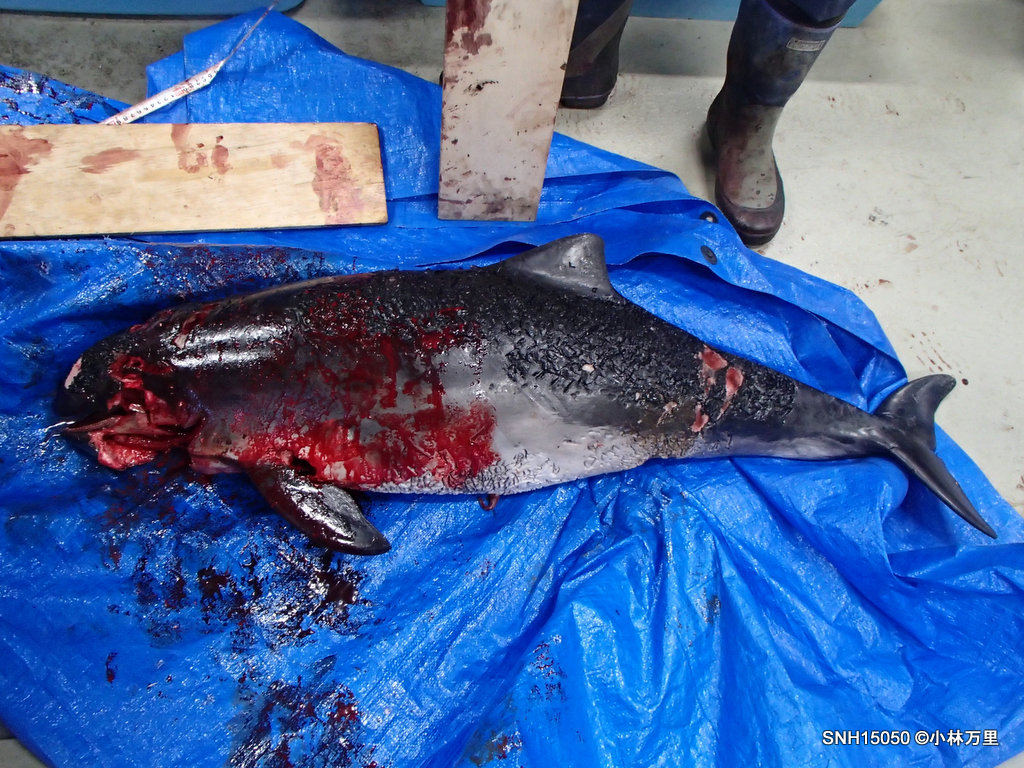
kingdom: Animalia
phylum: Chordata
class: Mammalia
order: Cetacea
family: Phocoenidae
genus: Phocoena
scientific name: Phocoena phocoena
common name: Harbour porpoise
